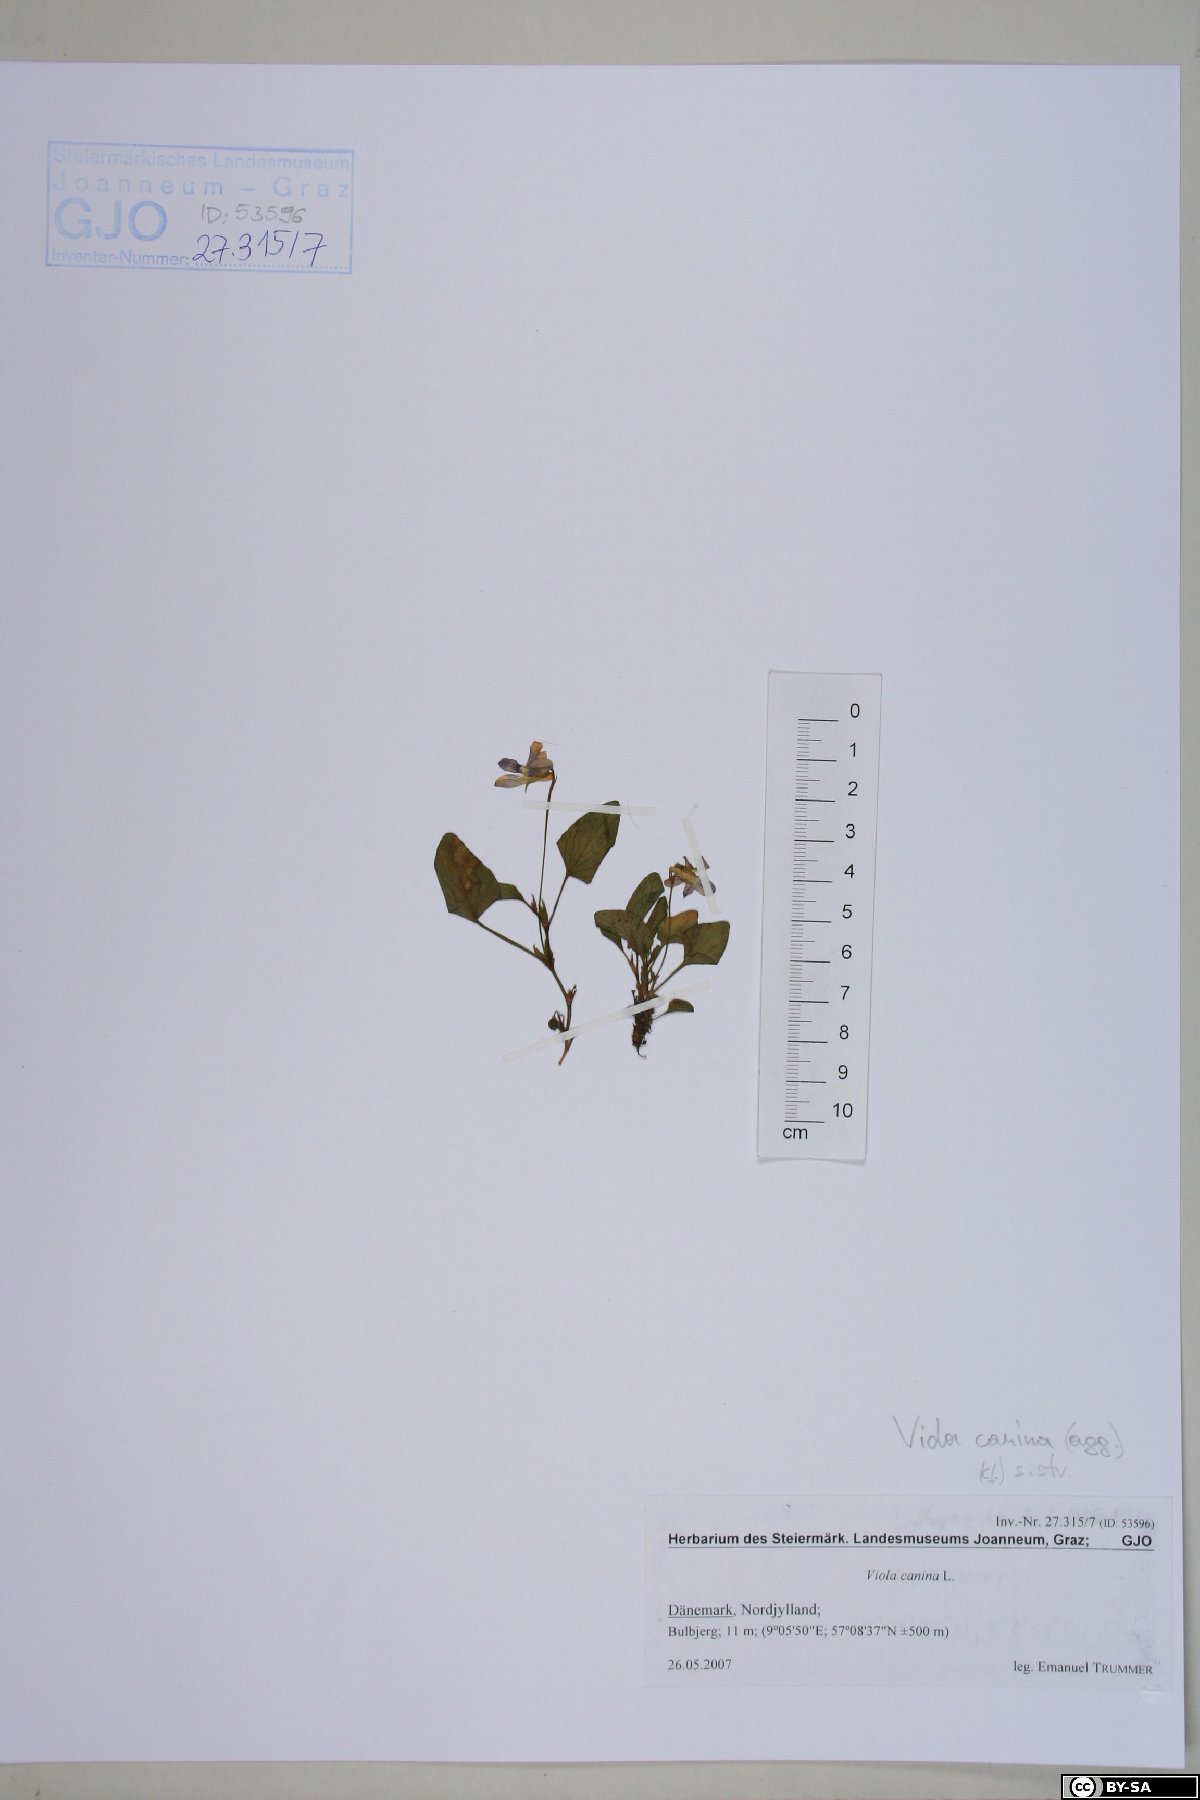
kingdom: Plantae
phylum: Tracheophyta
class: Magnoliopsida
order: Malpighiales
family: Violaceae
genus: Viola
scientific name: Viola canina
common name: Heath dog-violet
